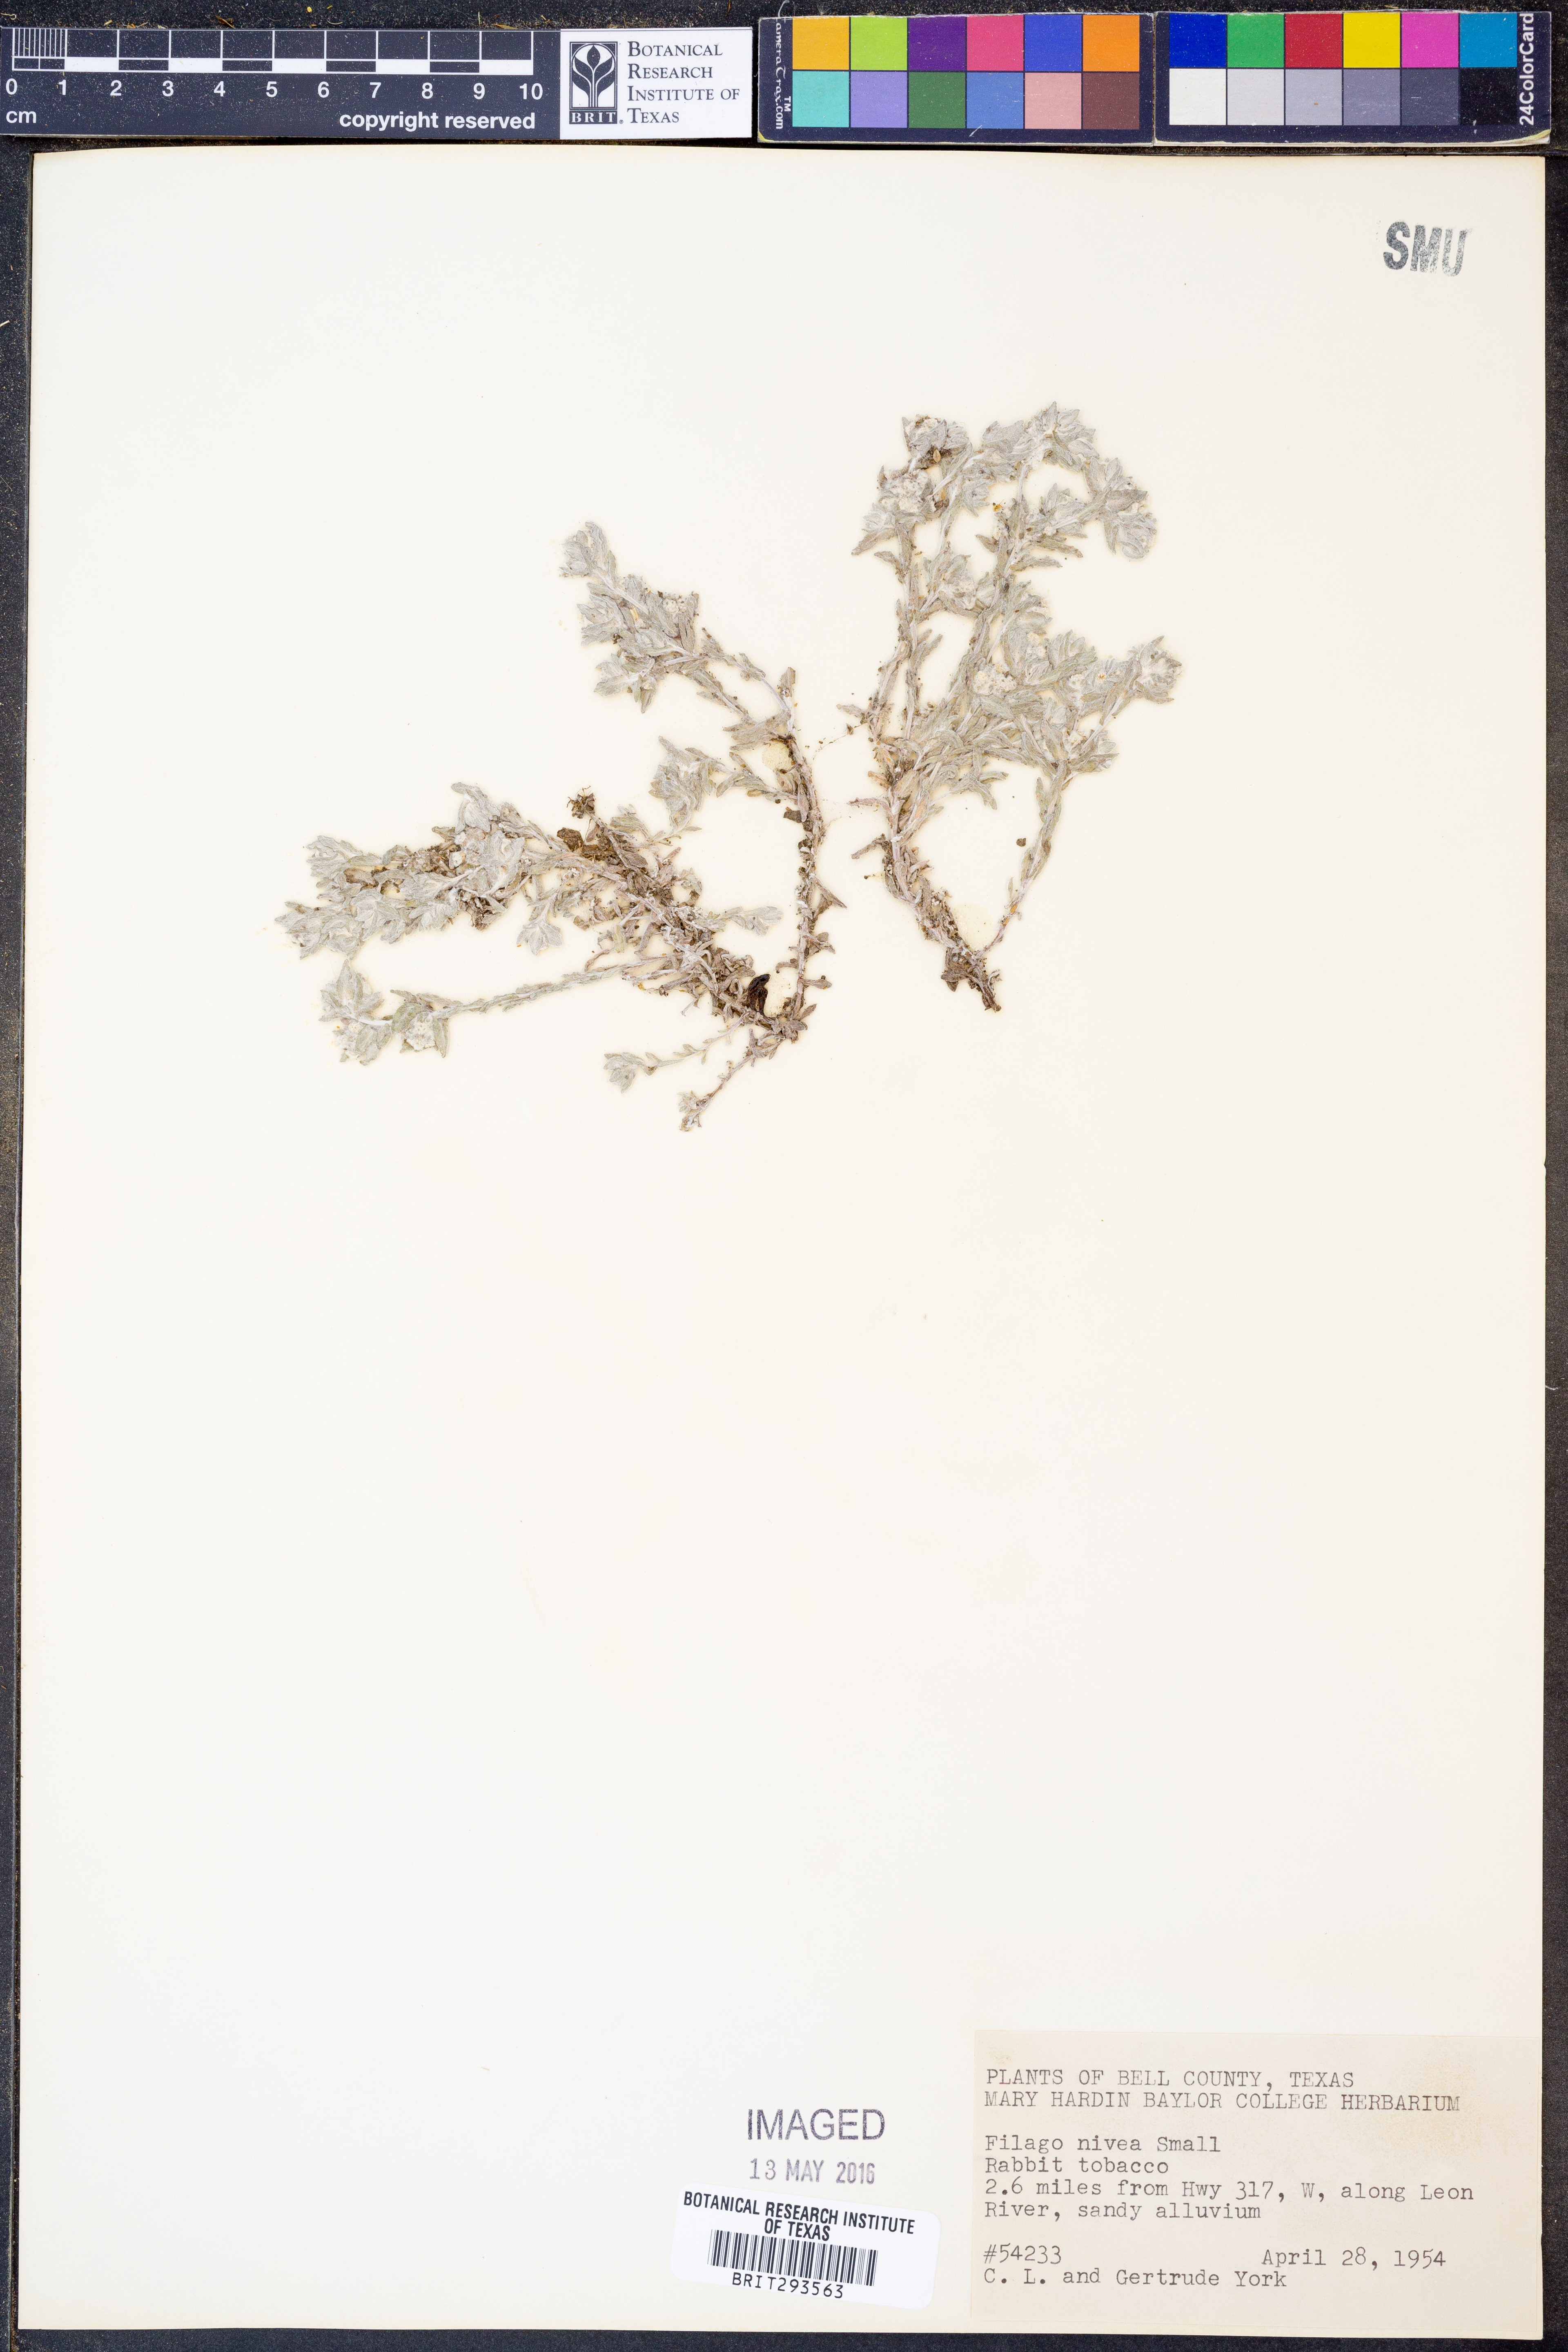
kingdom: Plantae
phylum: Tracheophyta
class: Magnoliopsida
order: Asterales
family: Asteraceae
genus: Diaperia
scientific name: Diaperia verna
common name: Many-stem rabbit-tobacco
